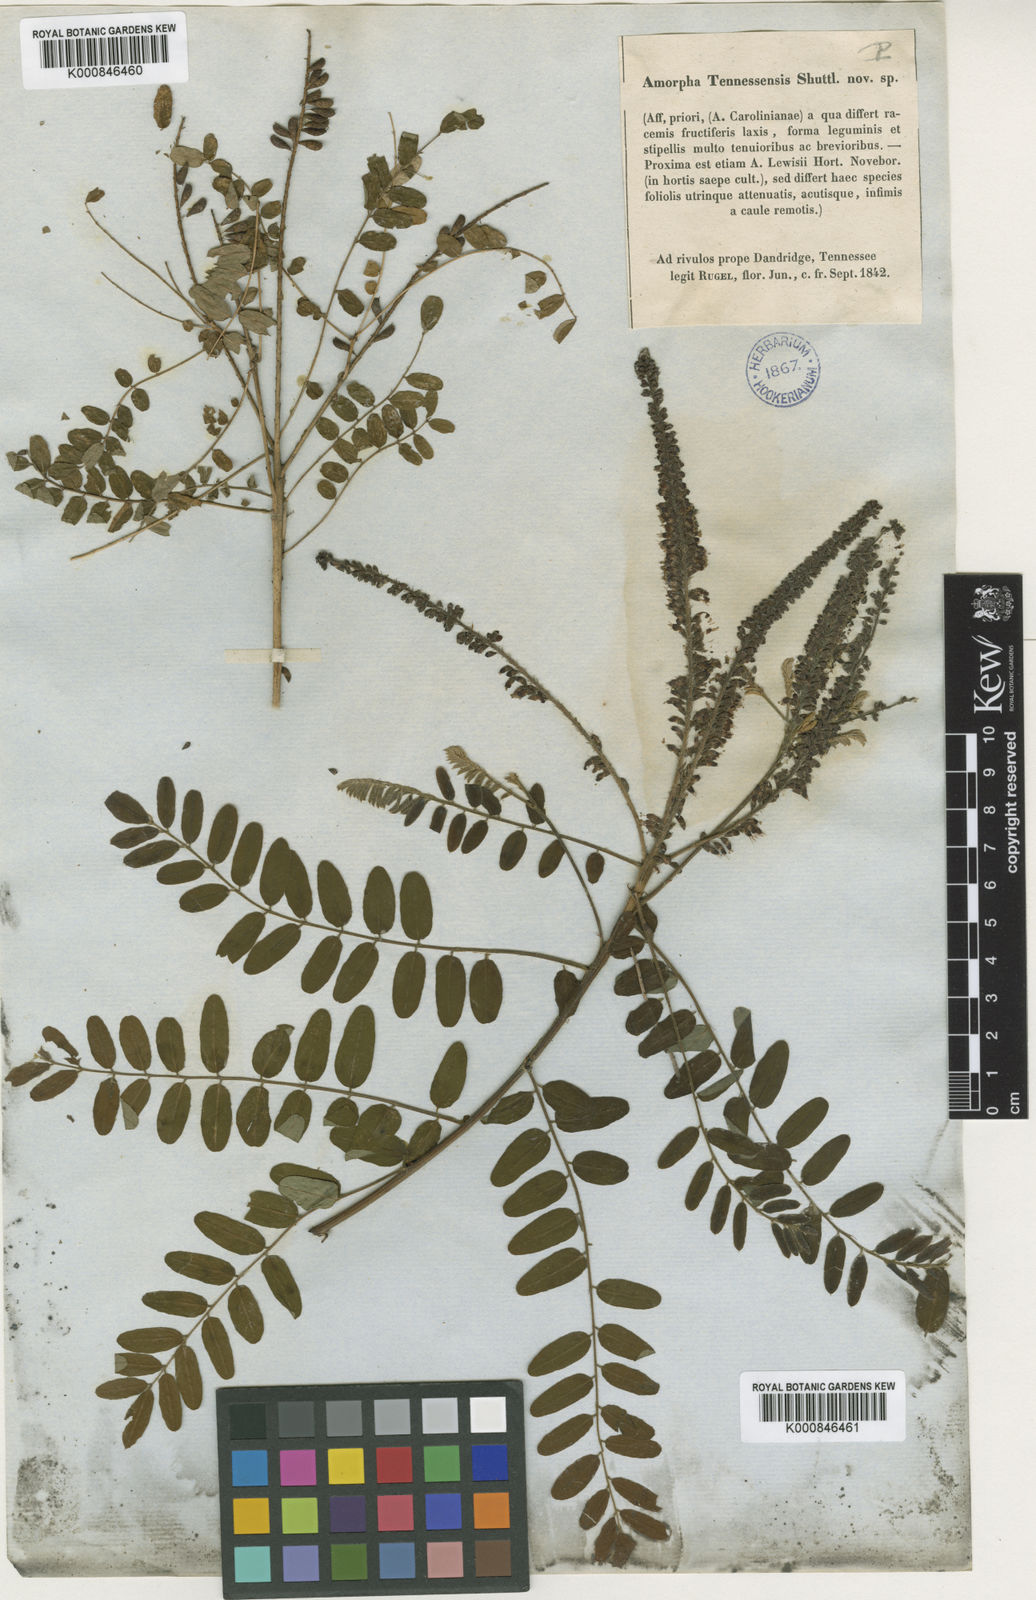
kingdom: Plantae
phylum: Tracheophyta
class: Magnoliopsida
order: Fabales
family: Fabaceae
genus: Amorpha
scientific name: Amorpha fruticosa
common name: False indigo
